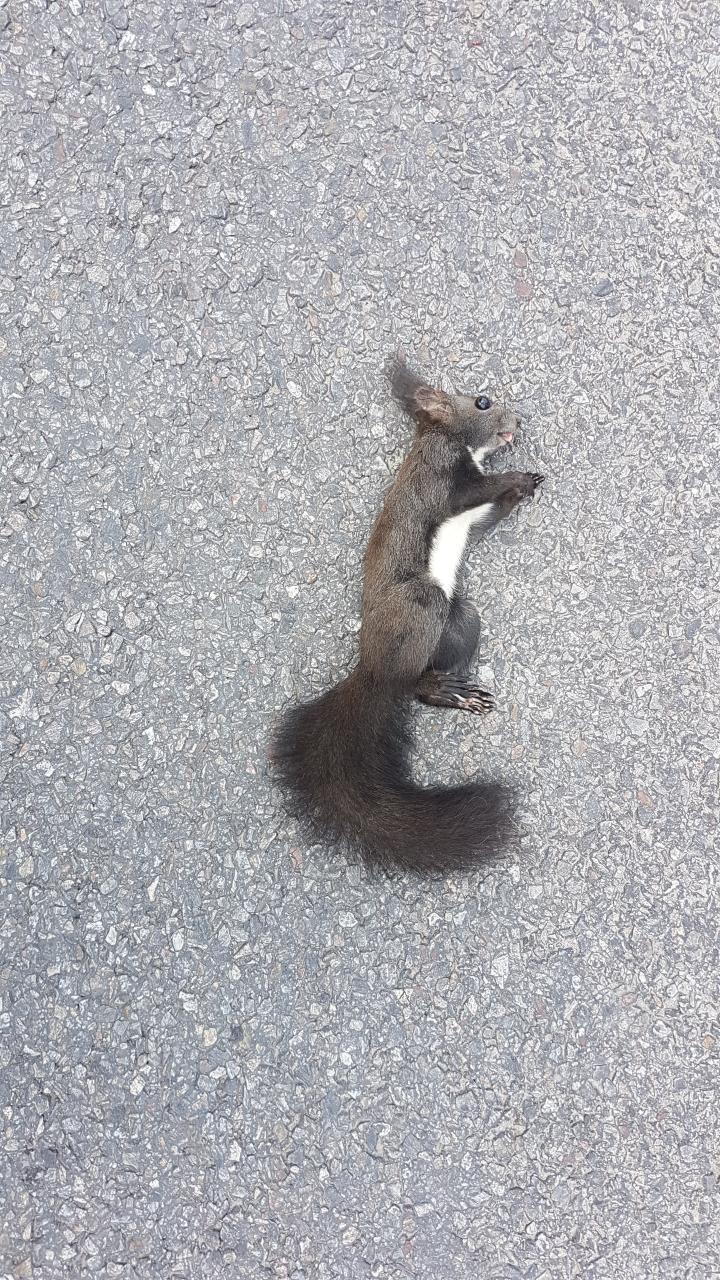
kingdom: Animalia
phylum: Chordata
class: Mammalia
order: Rodentia
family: Sciuridae
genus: Sciurus
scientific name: Sciurus vulgaris
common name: Eurasian red squirrel
